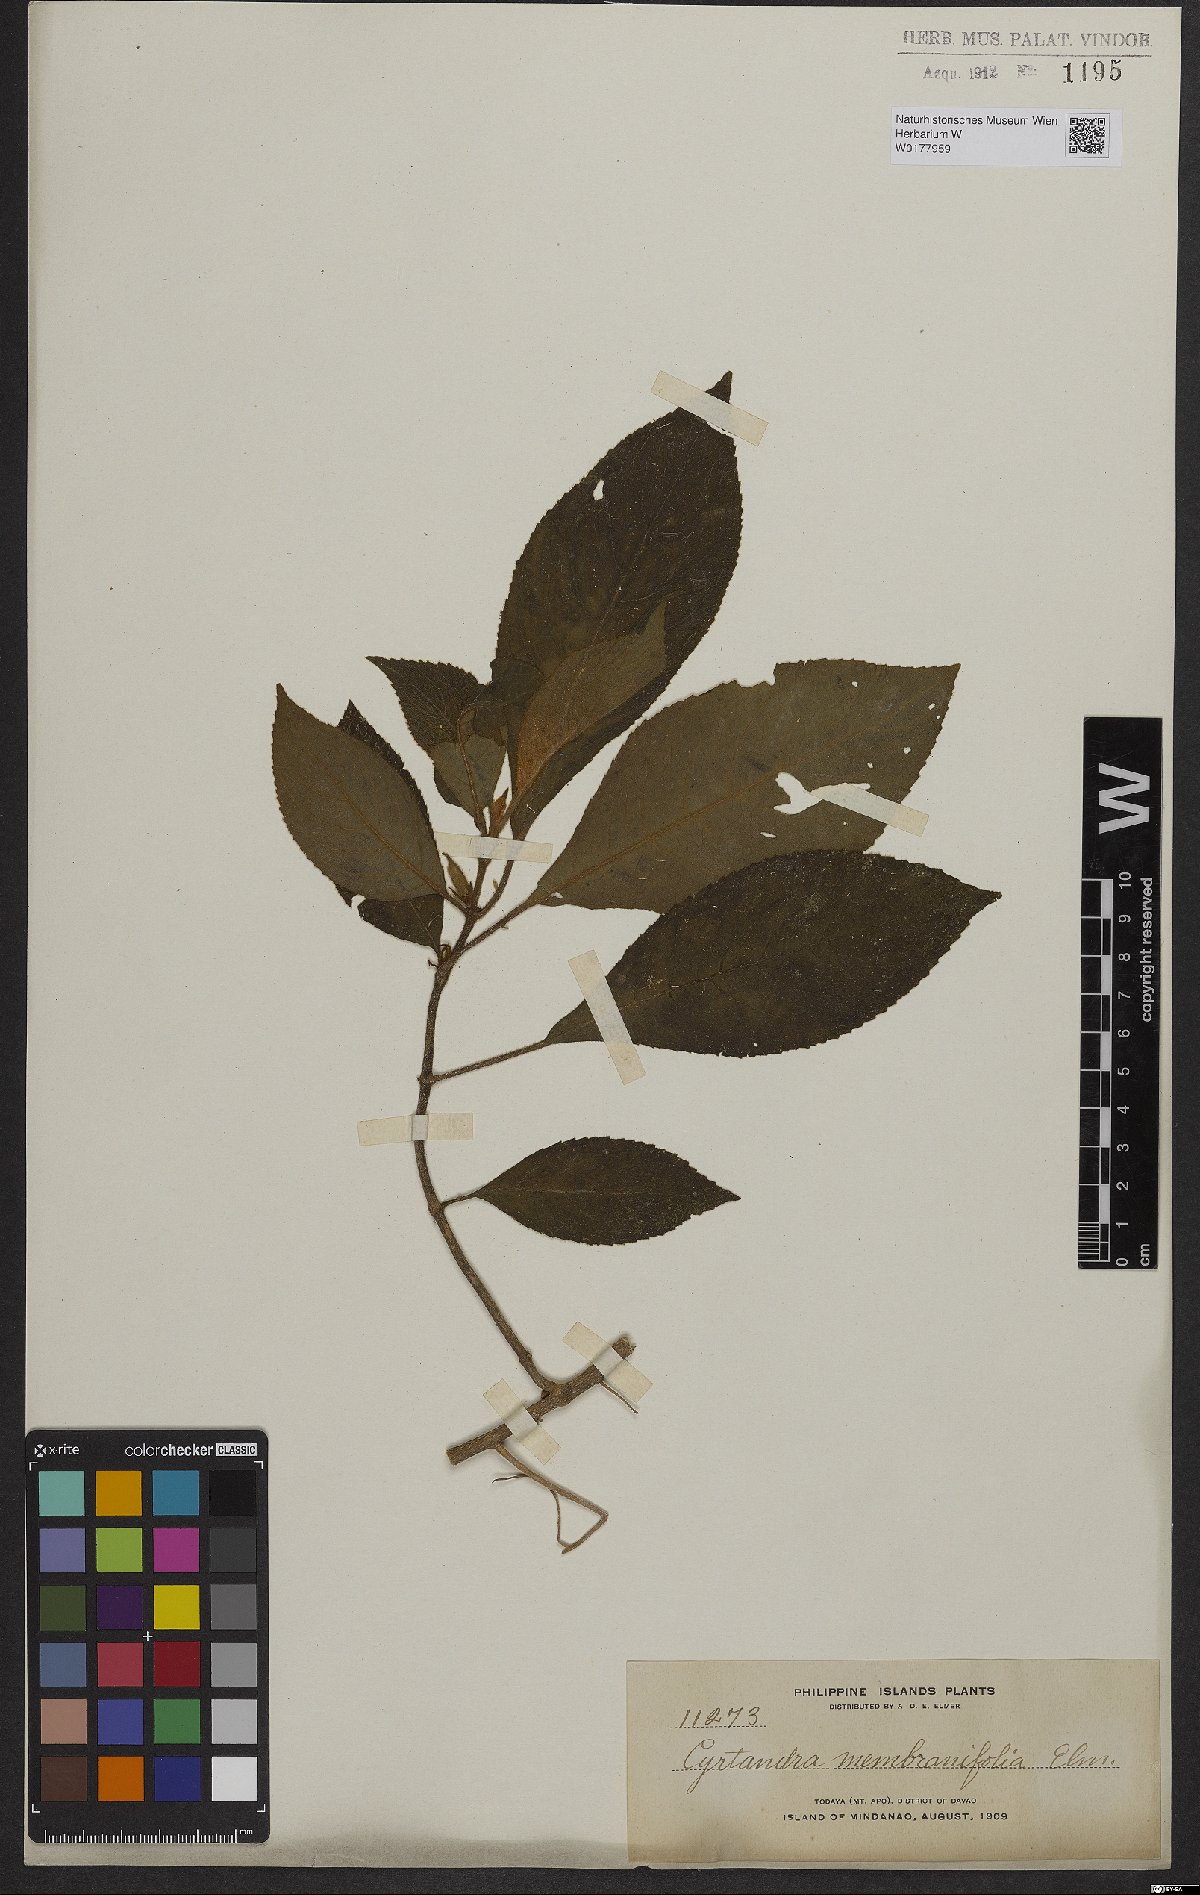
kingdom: Plantae
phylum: Tracheophyta
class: Magnoliopsida
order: Lamiales
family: Gesneriaceae
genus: Cyrtandra
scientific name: Cyrtandra membranifolia
